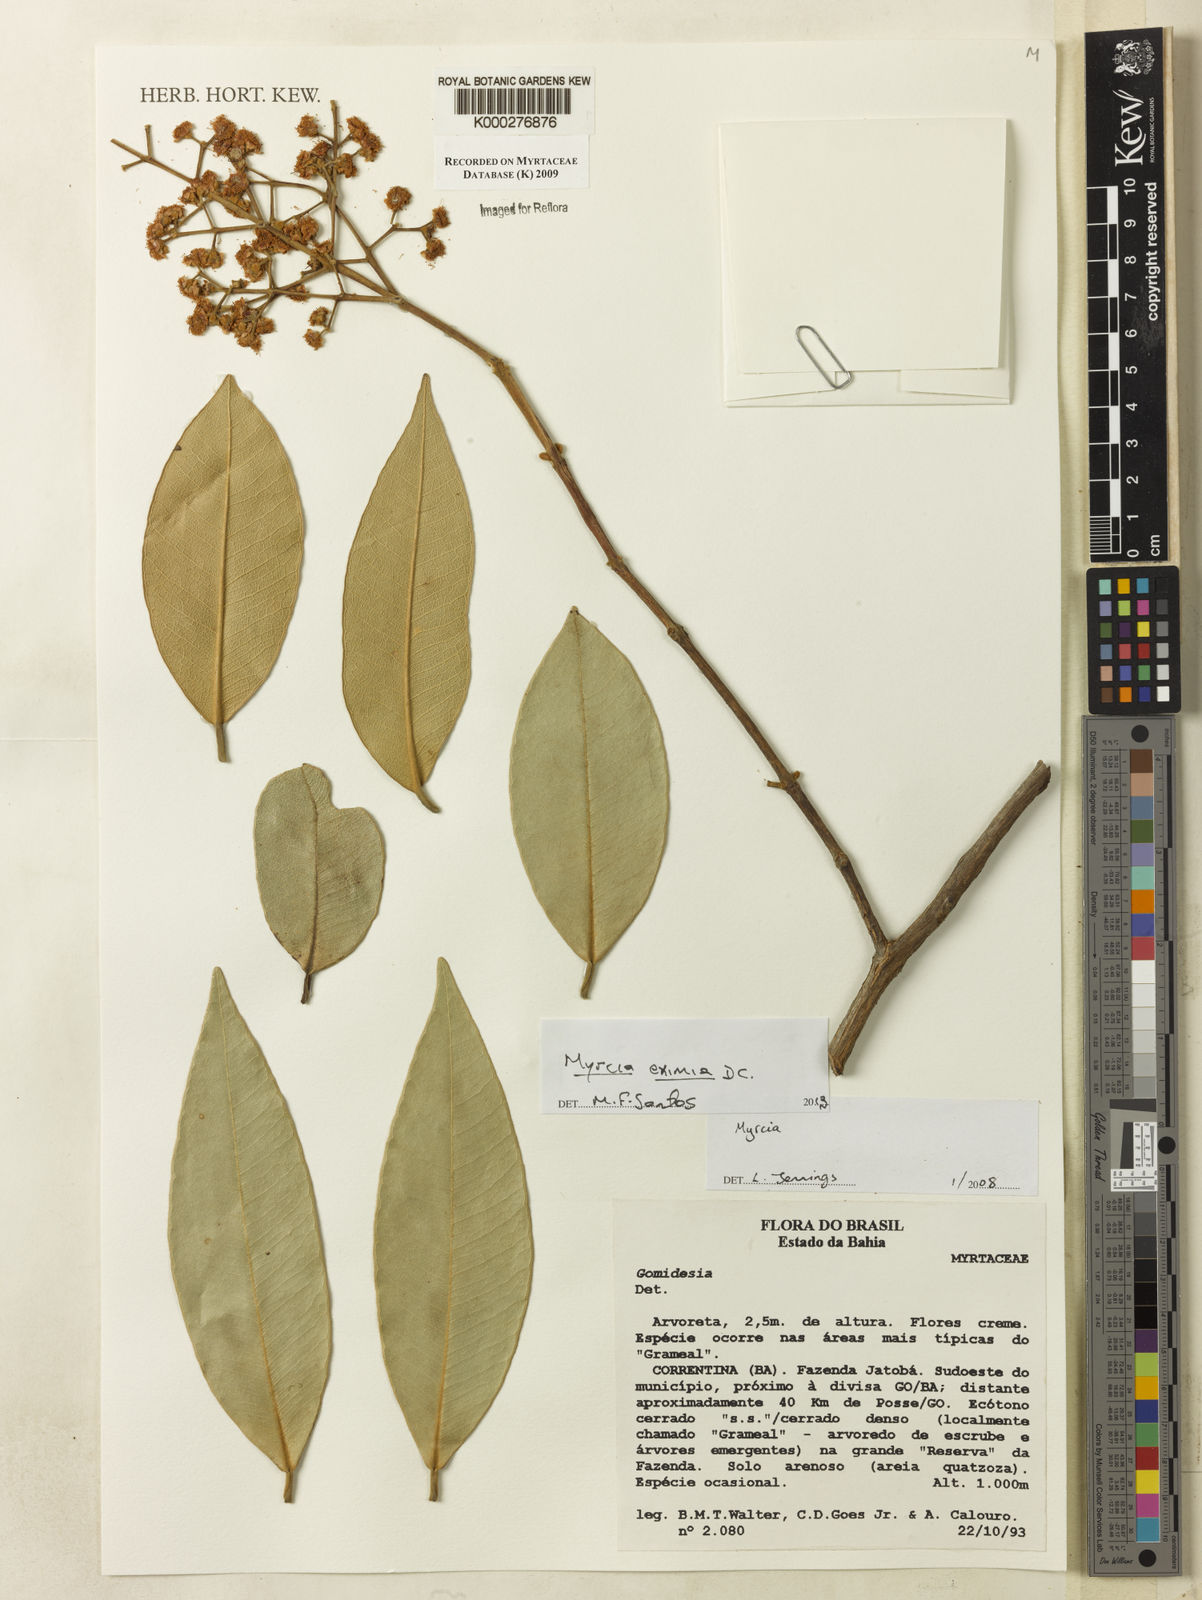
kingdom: Plantae
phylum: Tracheophyta
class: Magnoliopsida
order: Myrtales
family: Myrtaceae
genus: Myrcia
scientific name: Myrcia
